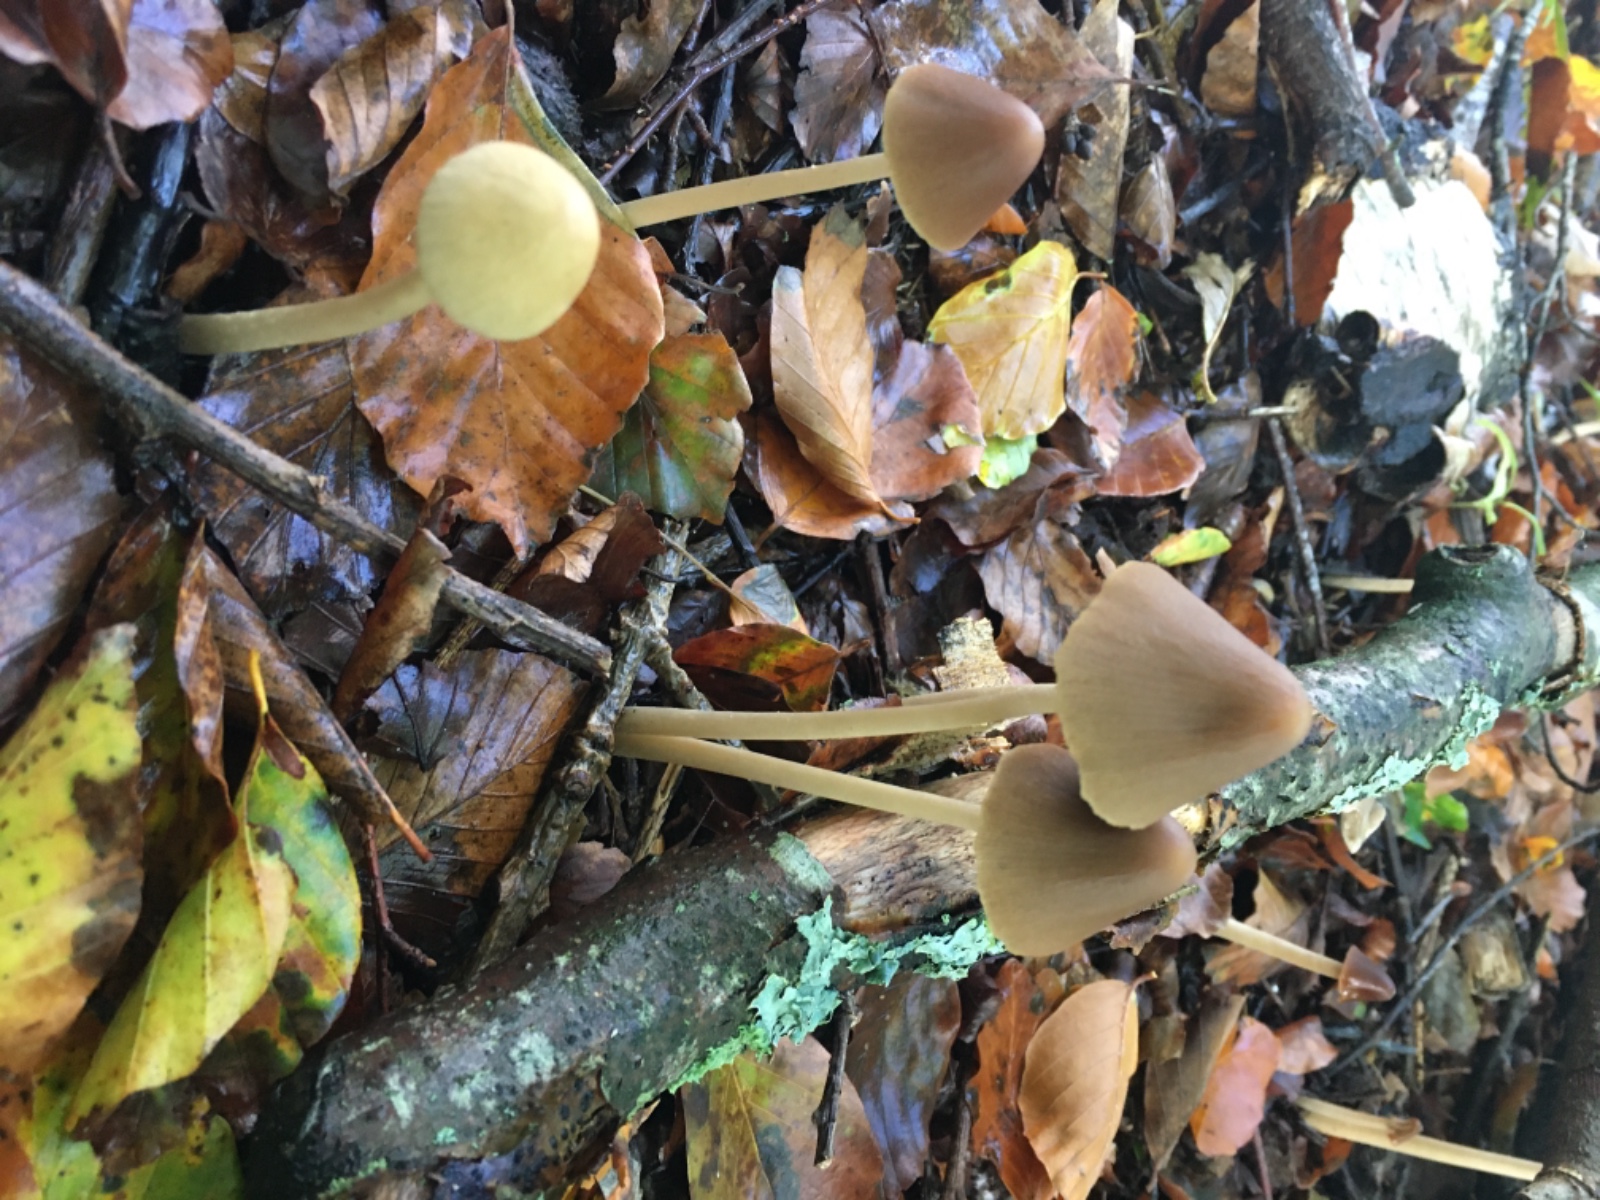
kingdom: Fungi
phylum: Basidiomycota
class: Agaricomycetes
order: Agaricales
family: Psathyrellaceae
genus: Parasola
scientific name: Parasola conopilea
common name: kegle-hjulhat
